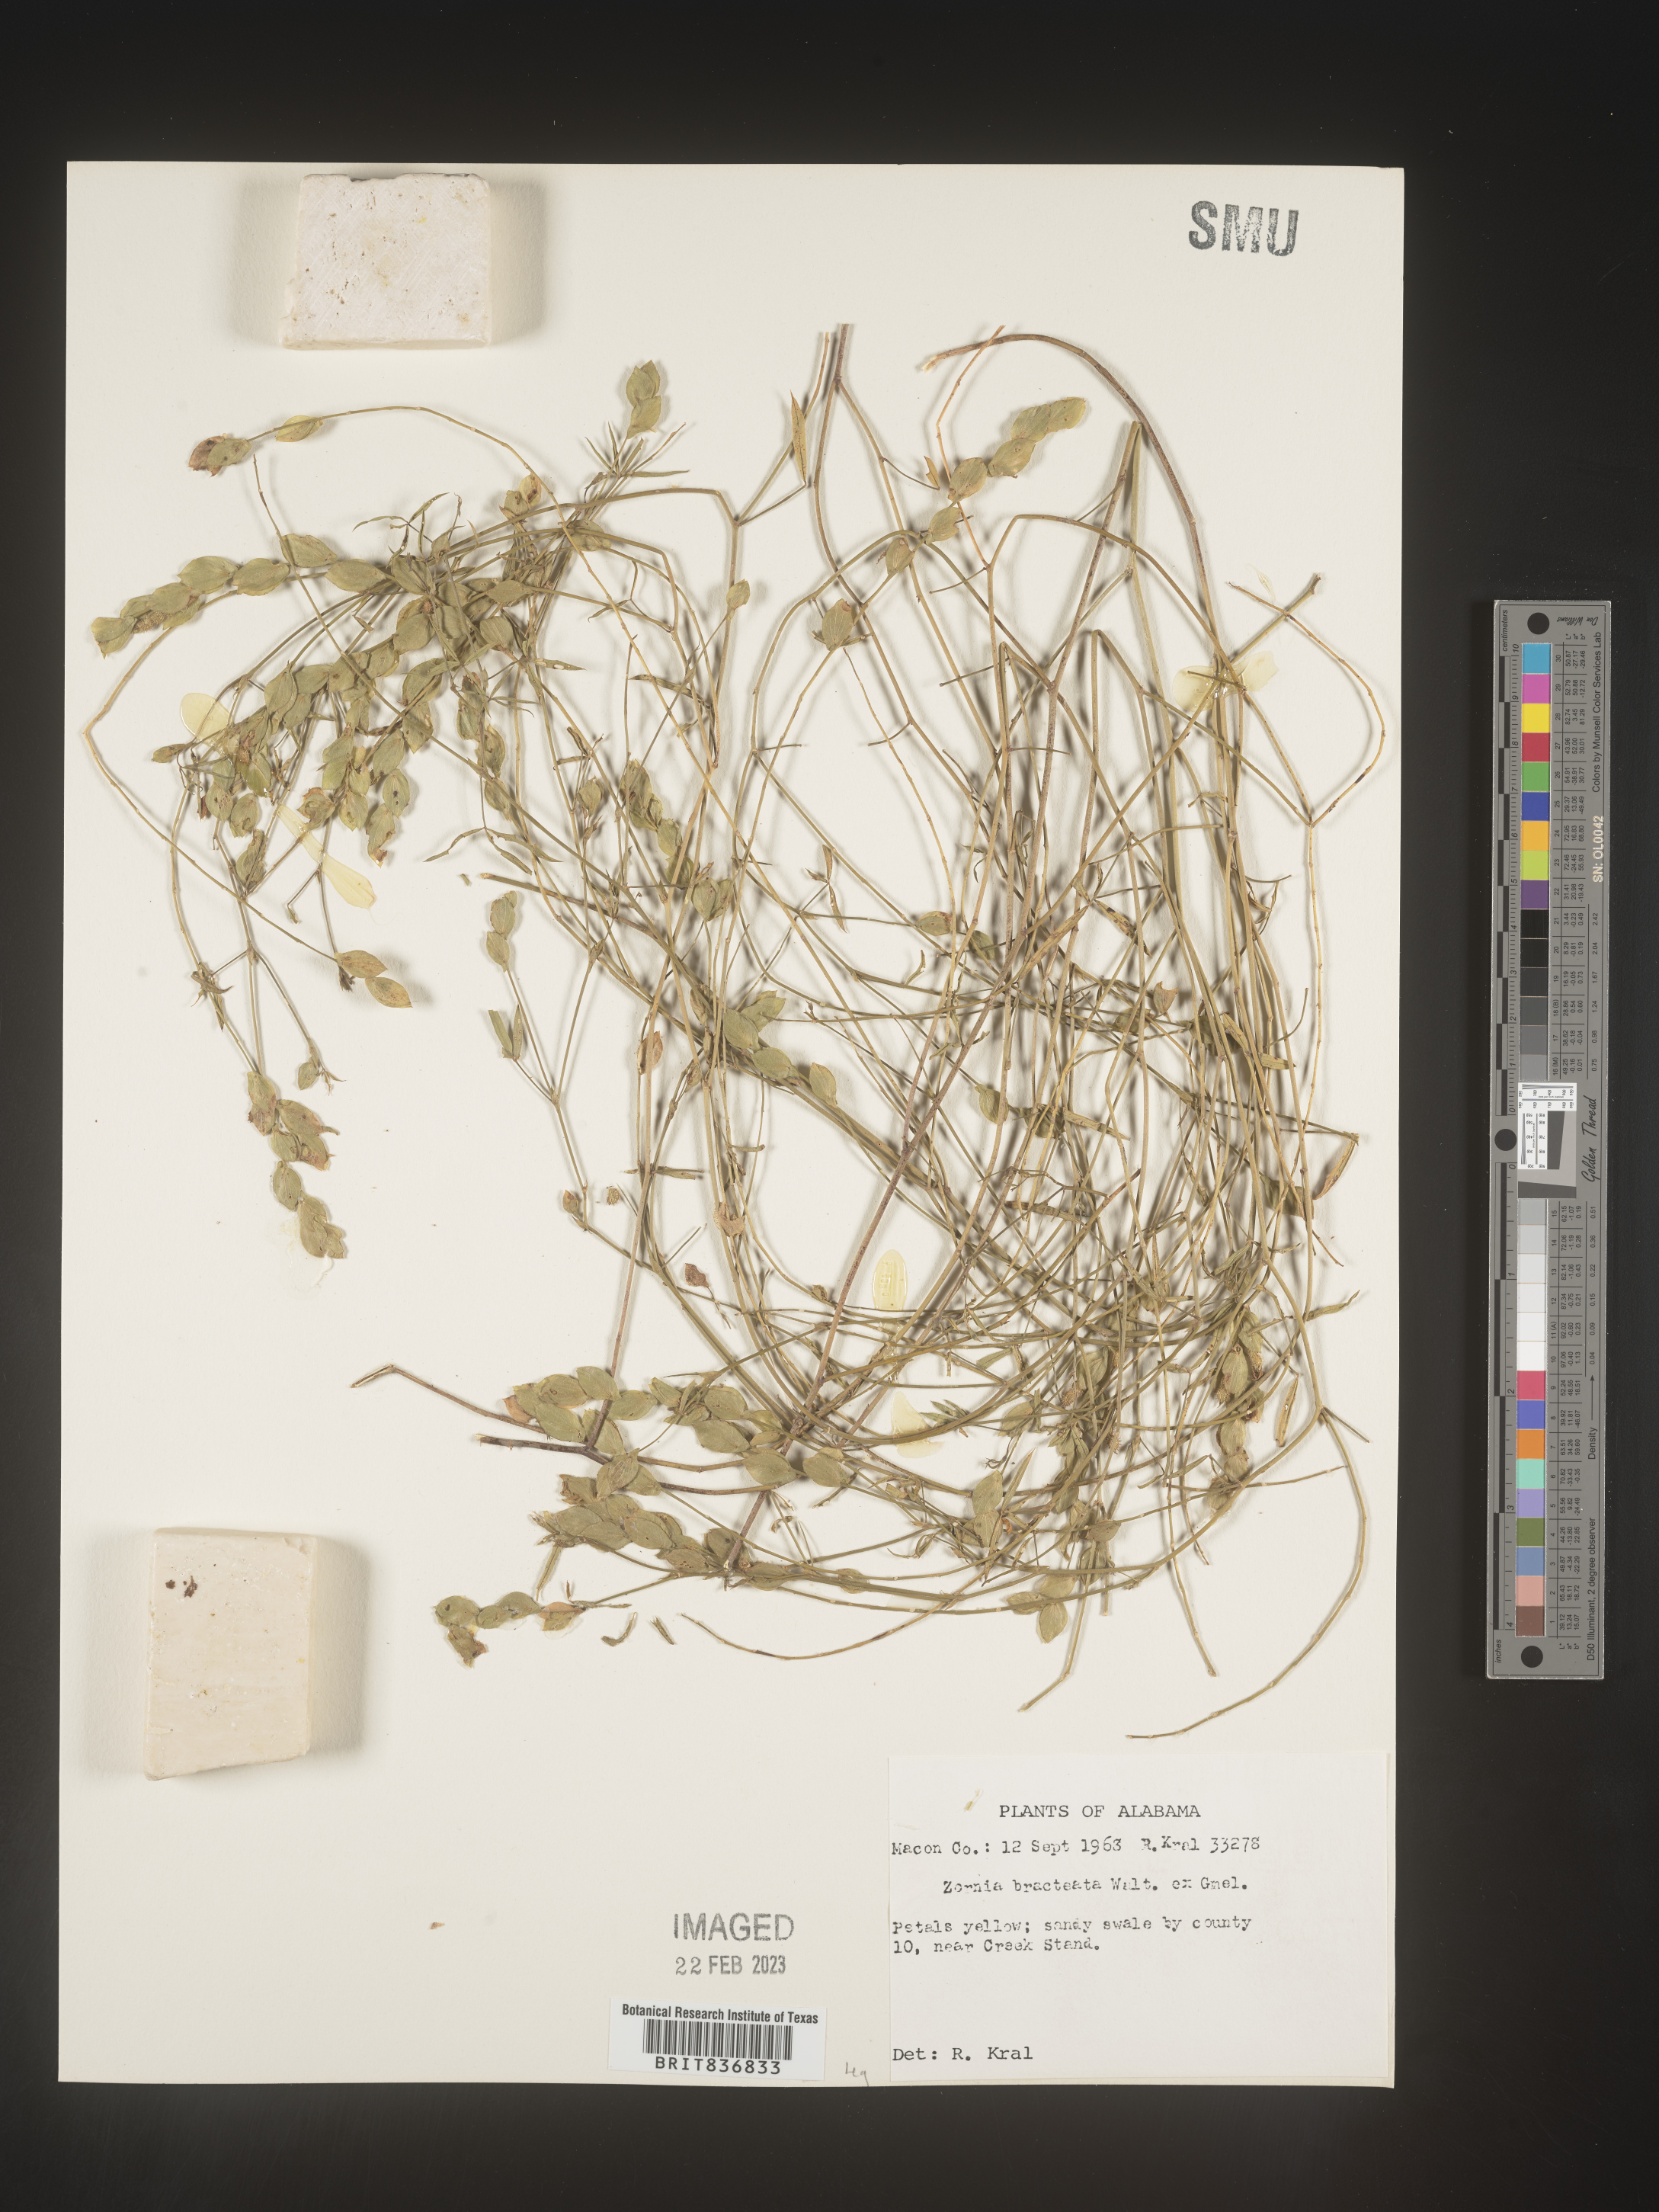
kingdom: Plantae
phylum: Tracheophyta
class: Magnoliopsida
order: Fabales
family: Fabaceae
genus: Zornia
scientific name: Zornia
